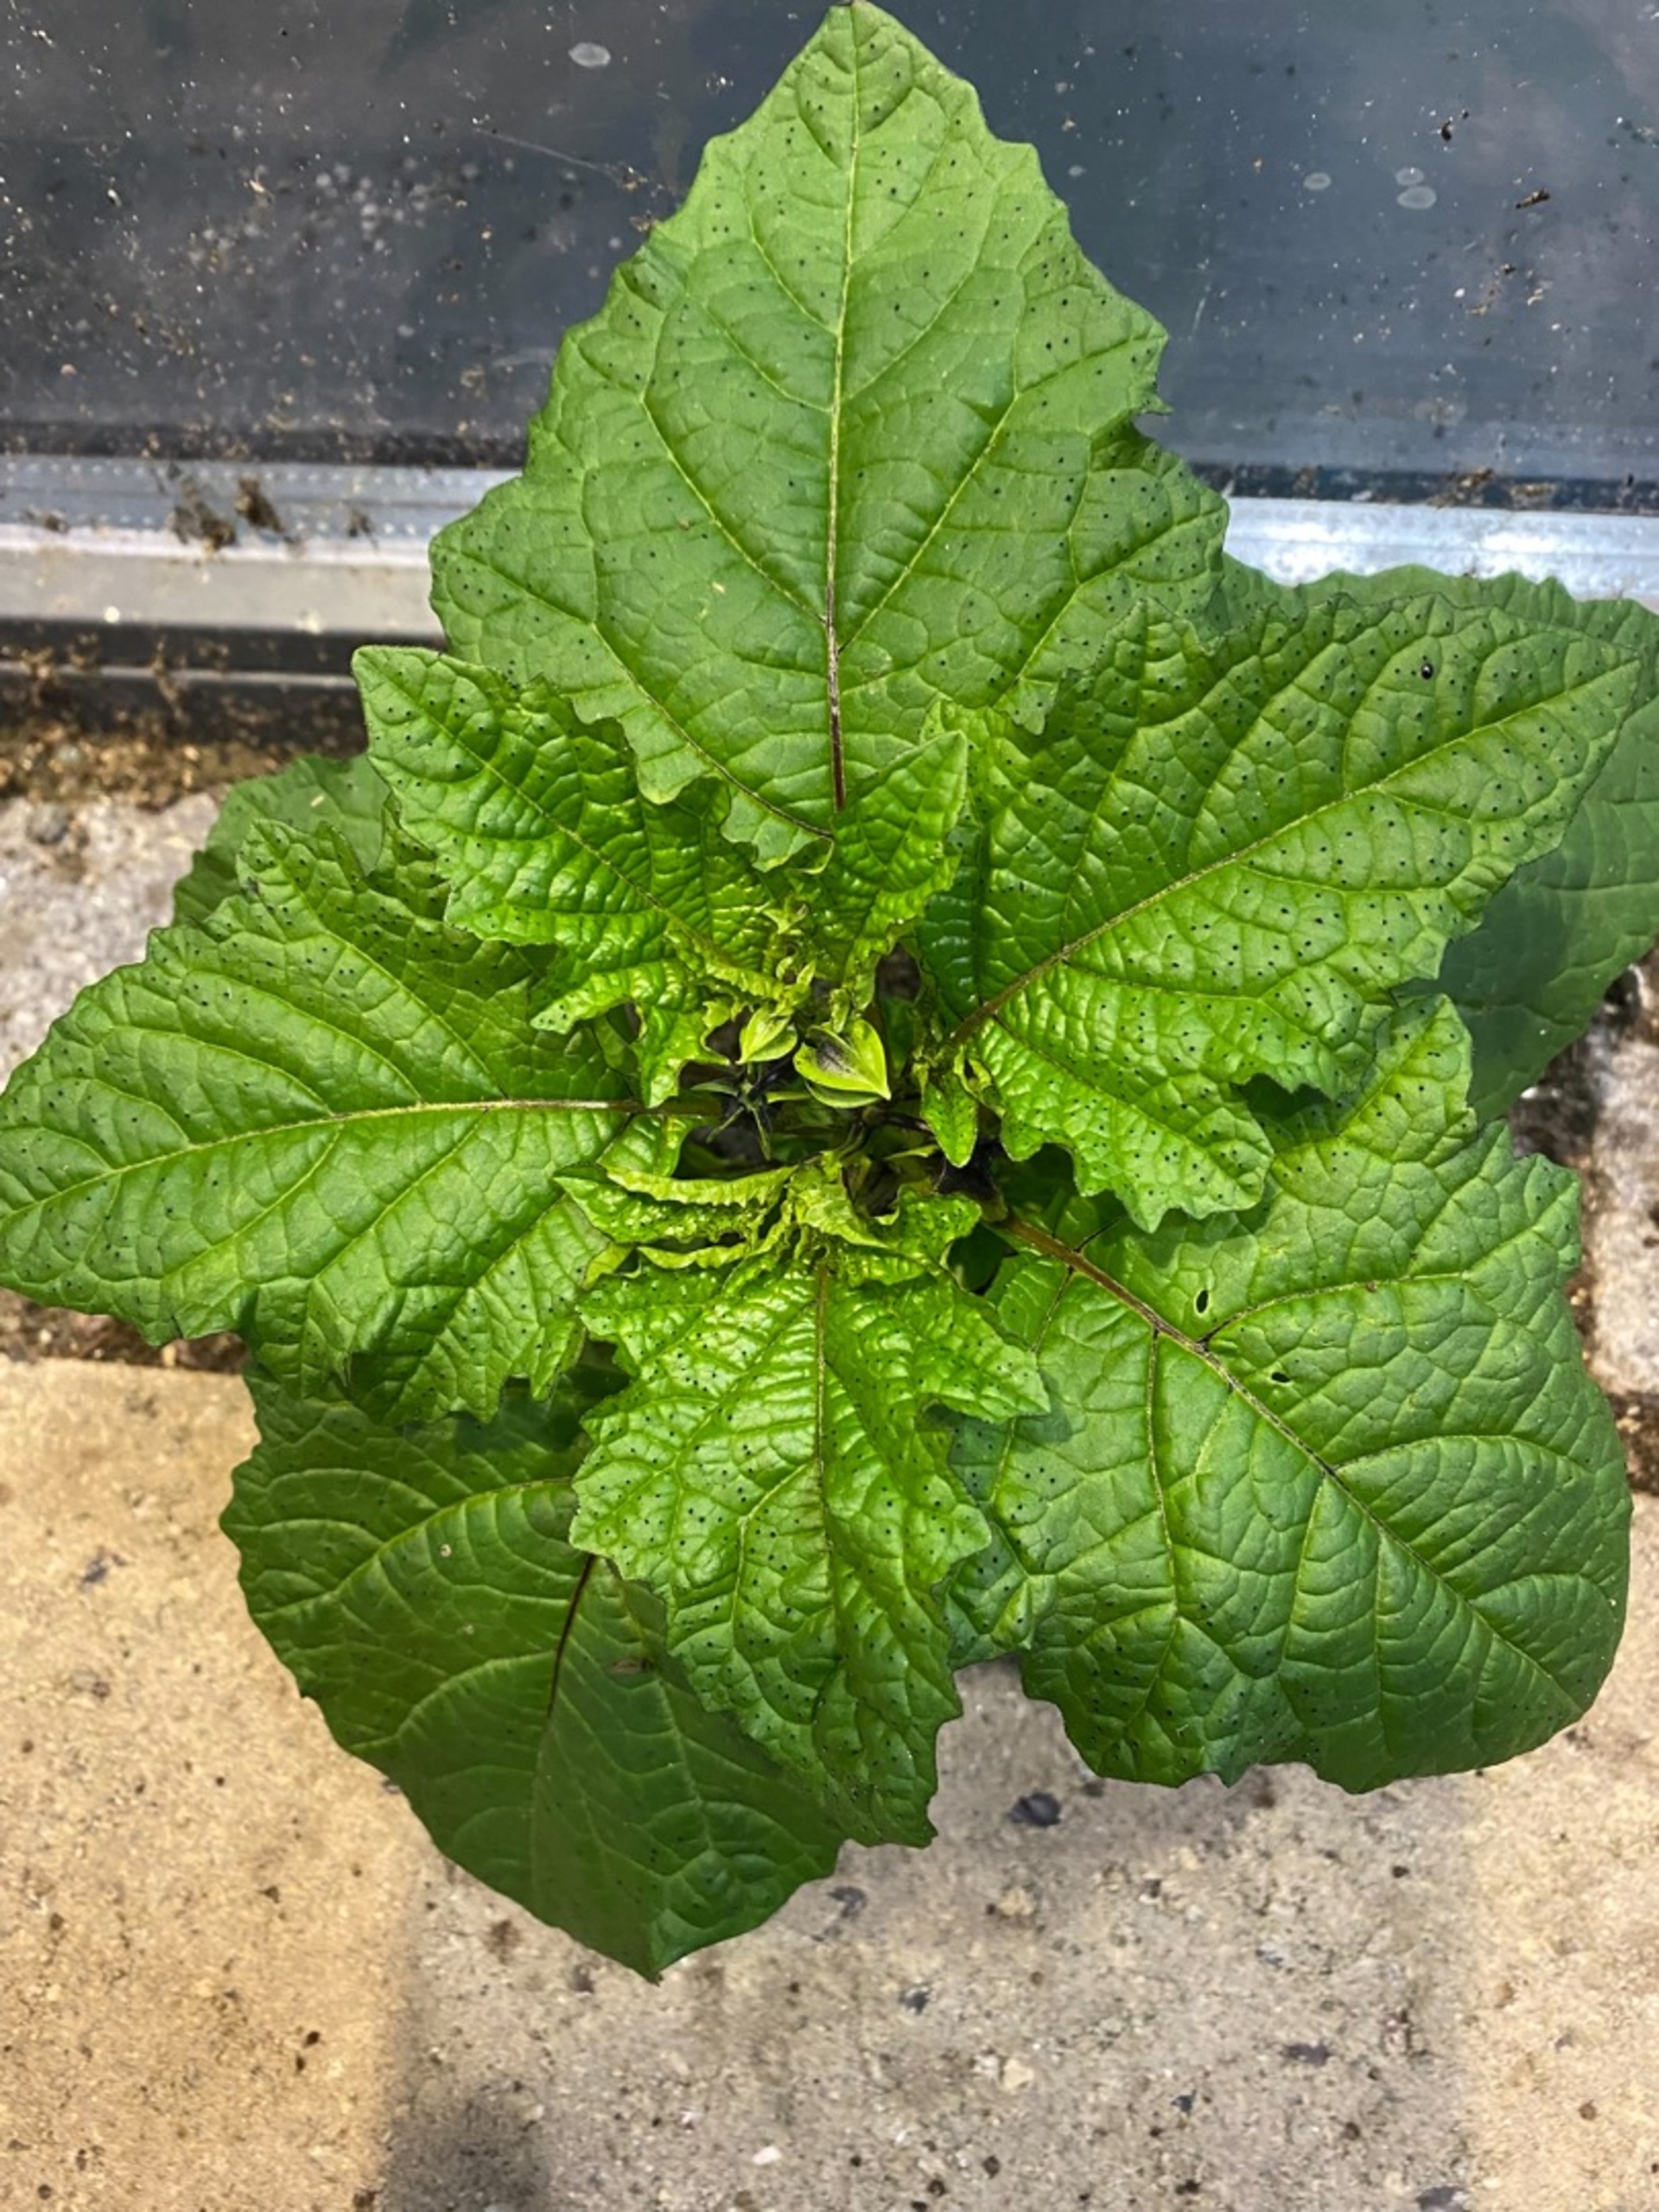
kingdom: Plantae
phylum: Tracheophyta
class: Magnoliopsida
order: Solanales
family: Solanaceae
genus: Nicandra
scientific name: Nicandra physalodes
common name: Kantbæger
